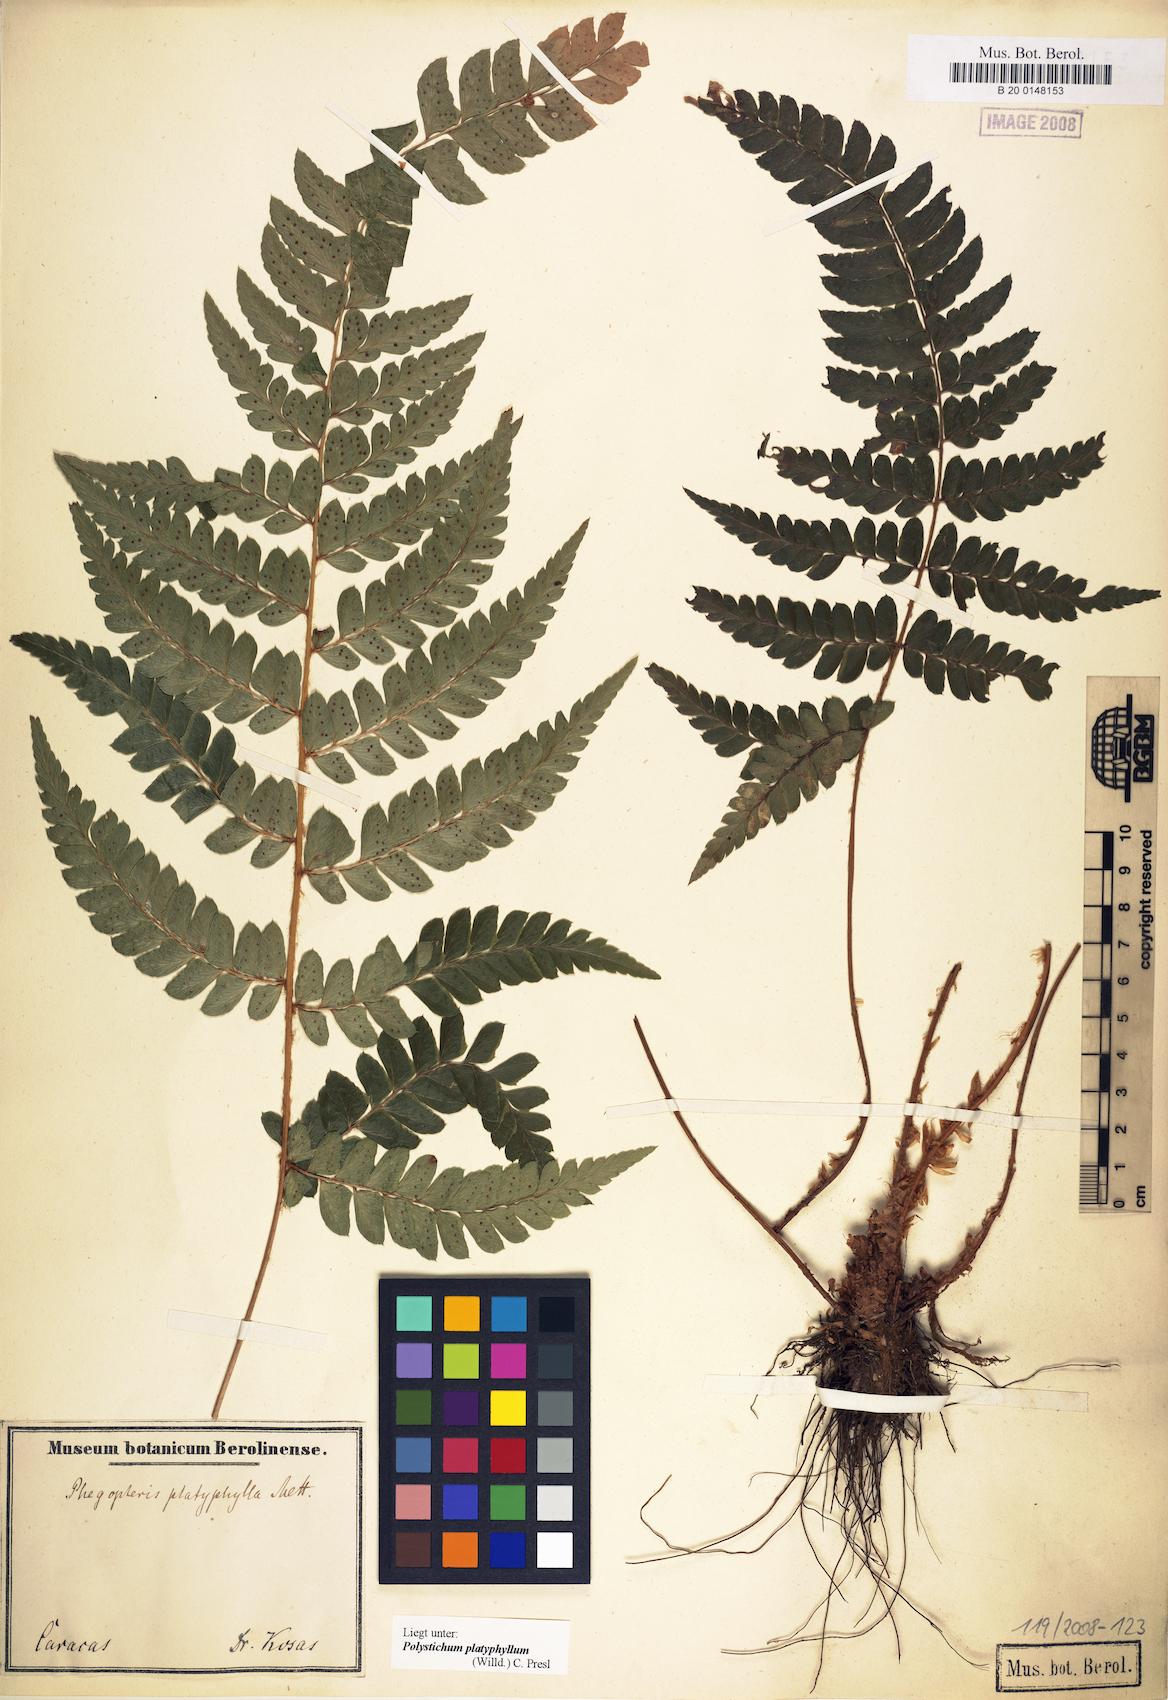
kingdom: Plantae
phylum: Tracheophyta
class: Polypodiopsida
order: Polypodiales
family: Dryopteridaceae
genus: Polystichum
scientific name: Polystichum platyphyllum
